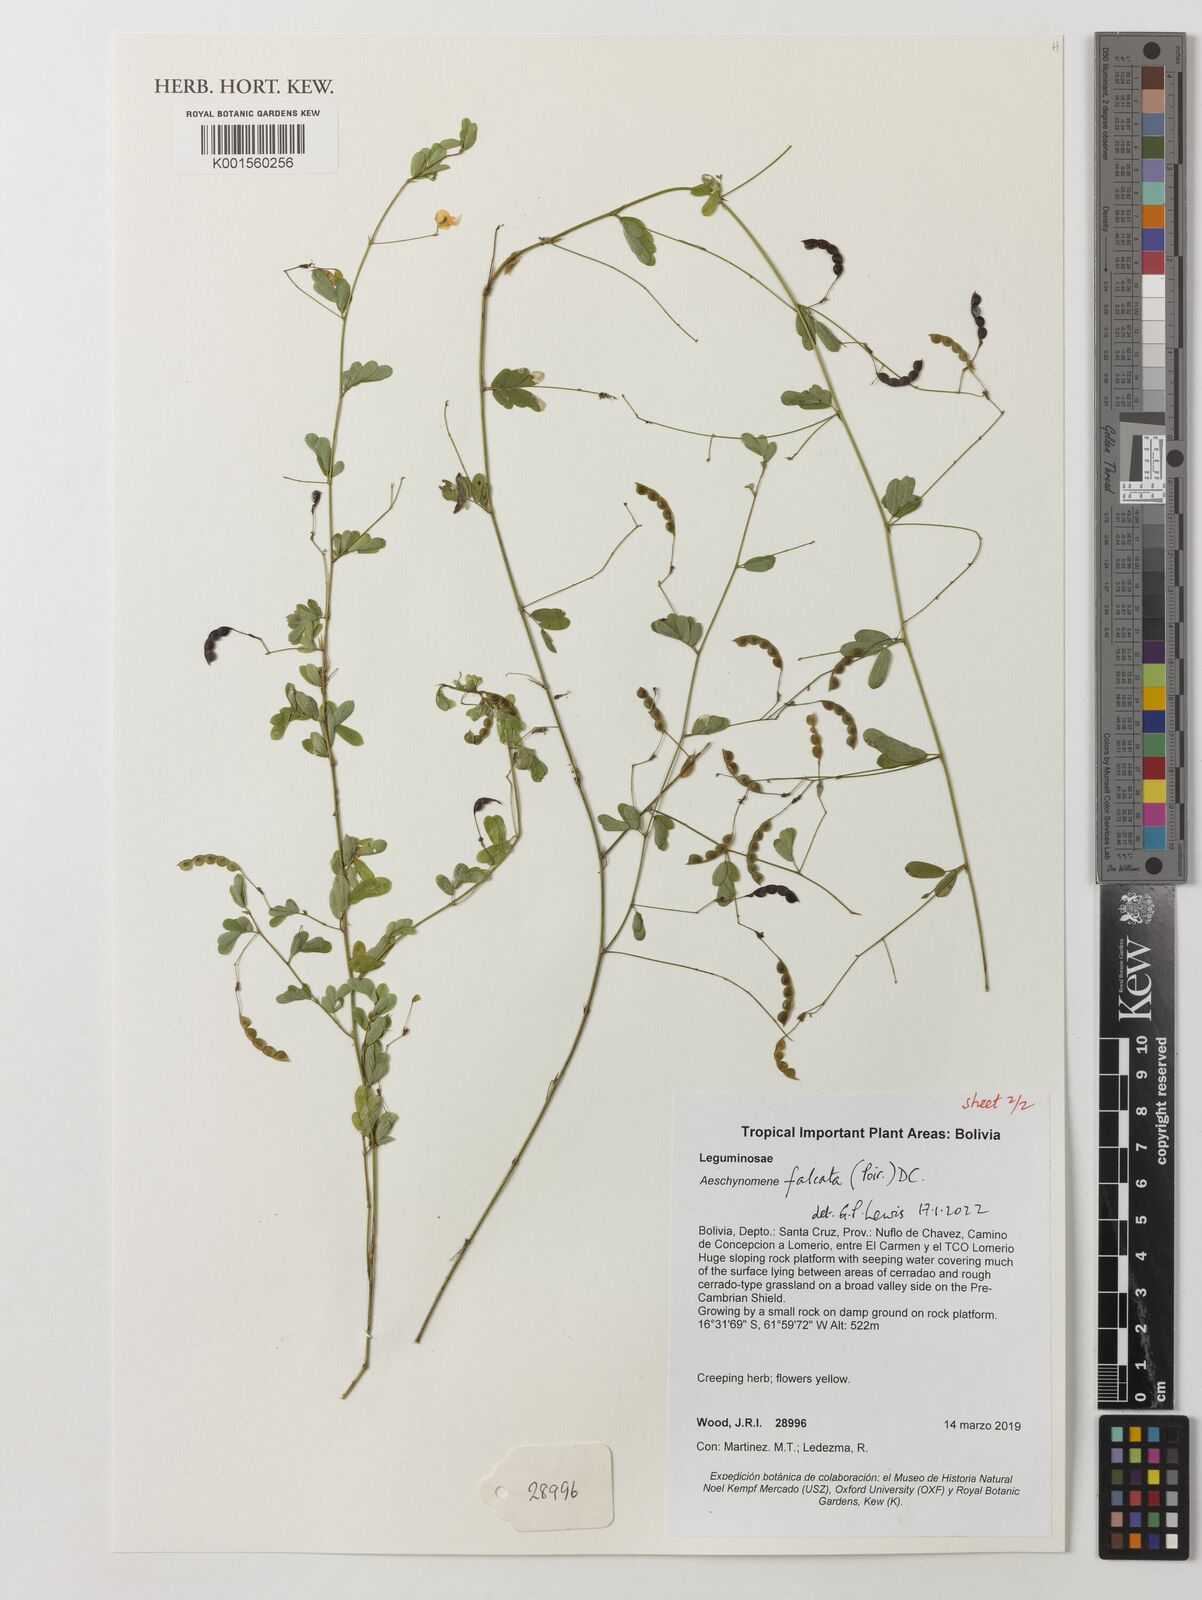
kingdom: Plantae
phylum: Tracheophyta
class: Magnoliopsida
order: Fabales
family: Fabaceae
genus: Ctenodon
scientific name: Ctenodon falcatus
